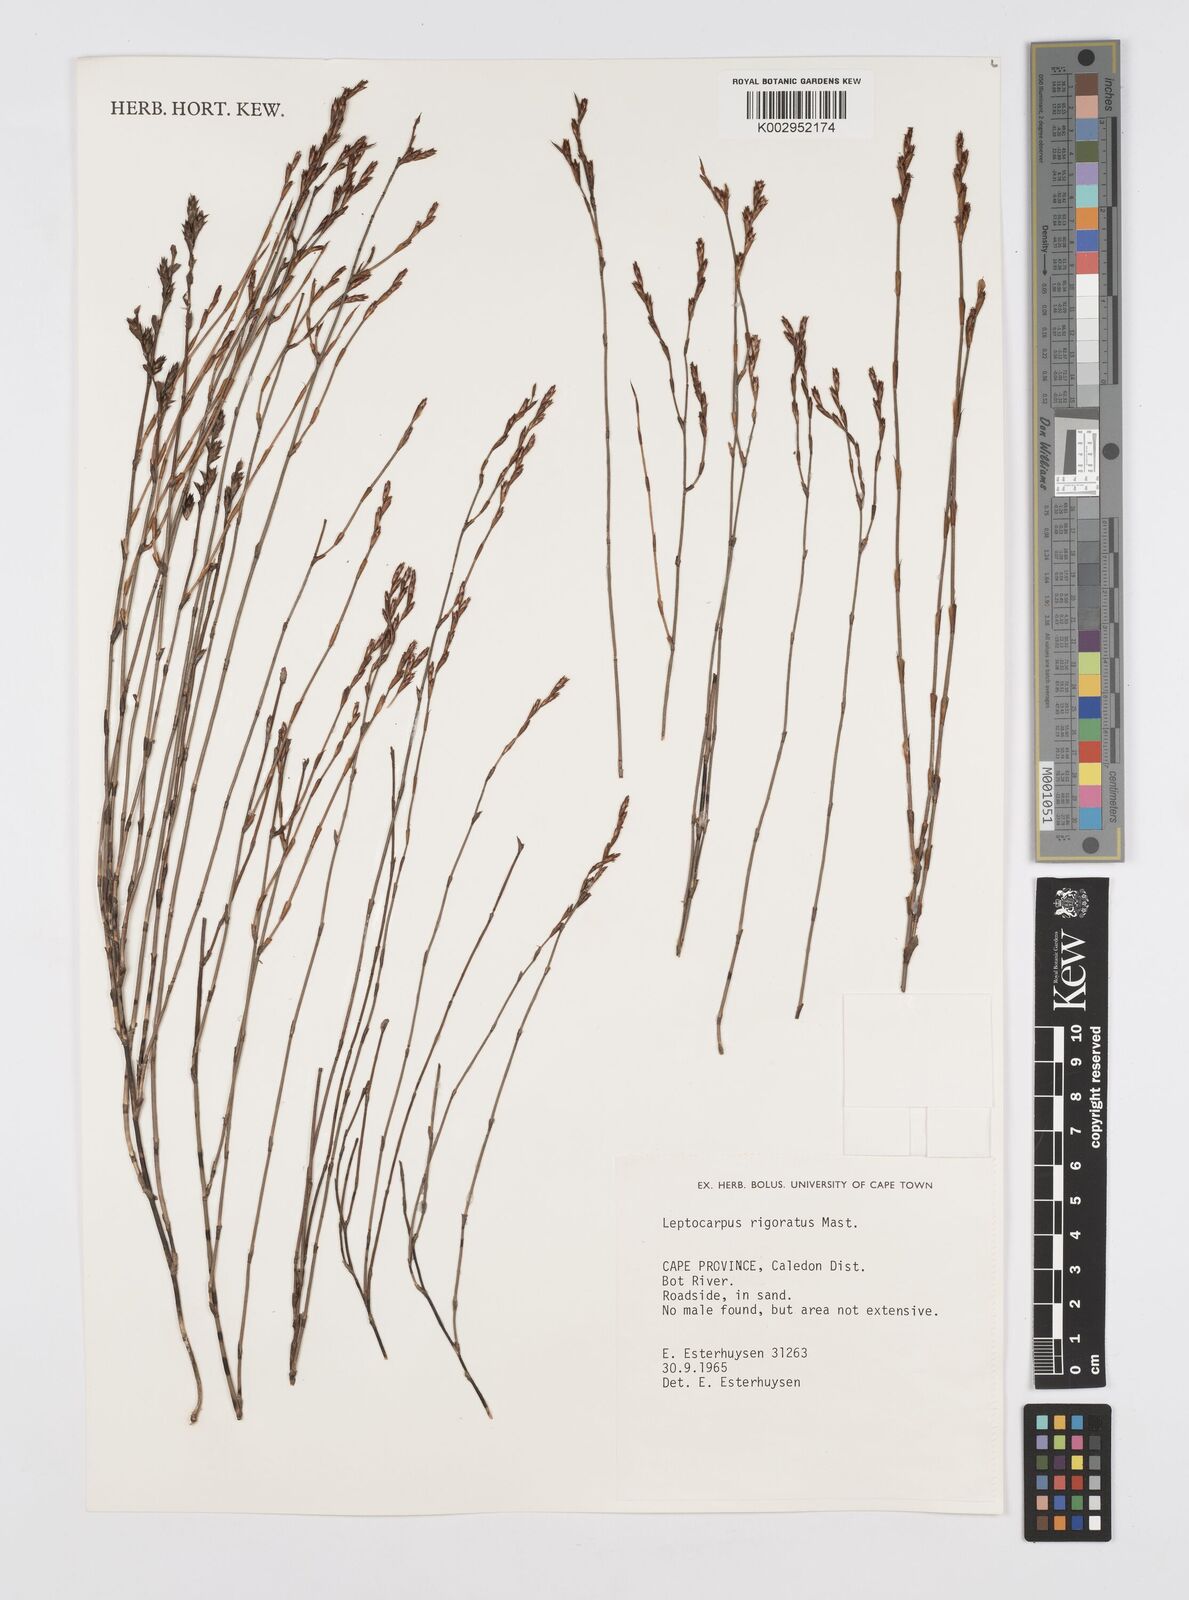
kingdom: Plantae
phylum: Tracheophyta
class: Liliopsida
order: Poales
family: Restionaceae
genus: Restio
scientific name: Restio rigoratus
